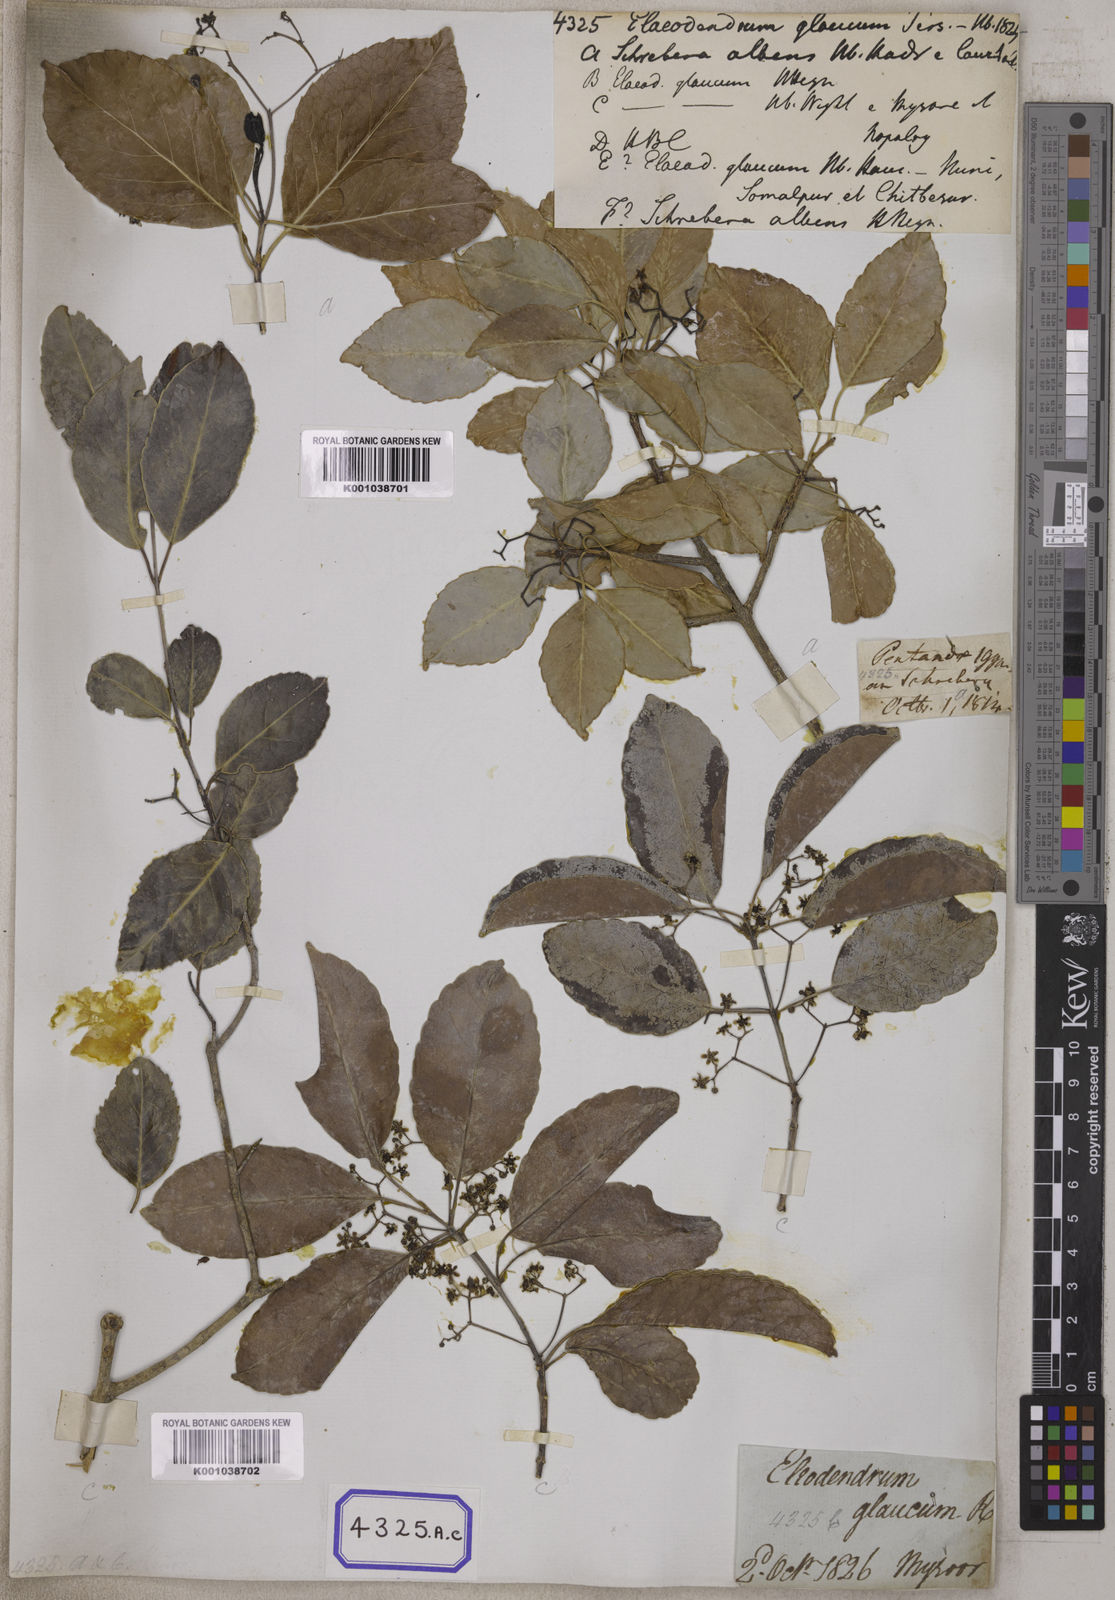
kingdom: Plantae
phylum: Tracheophyta
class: Magnoliopsida
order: Celastrales
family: Celastraceae
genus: Elaeodendron
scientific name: Elaeodendron glaucum
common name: Ceylon-tea
